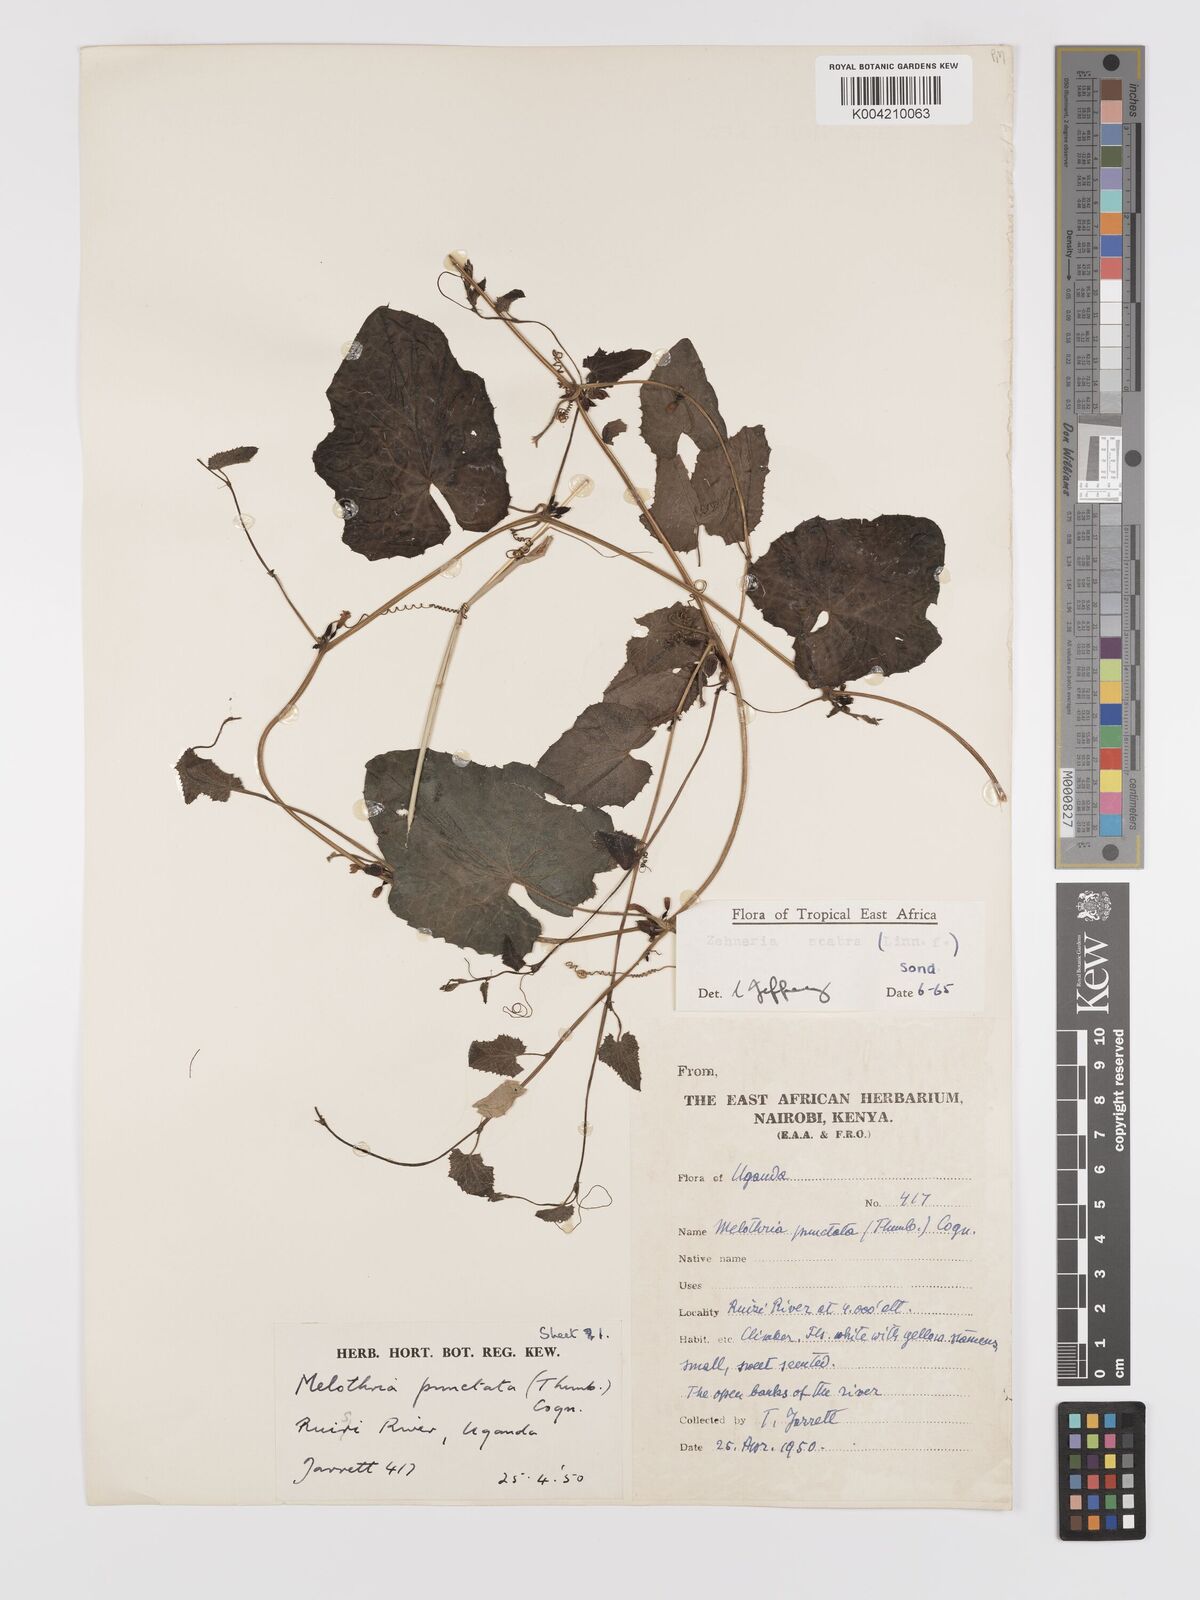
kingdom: Plantae
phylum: Tracheophyta
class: Magnoliopsida
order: Cucurbitales
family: Cucurbitaceae
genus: Zehneria
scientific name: Zehneria scabra
